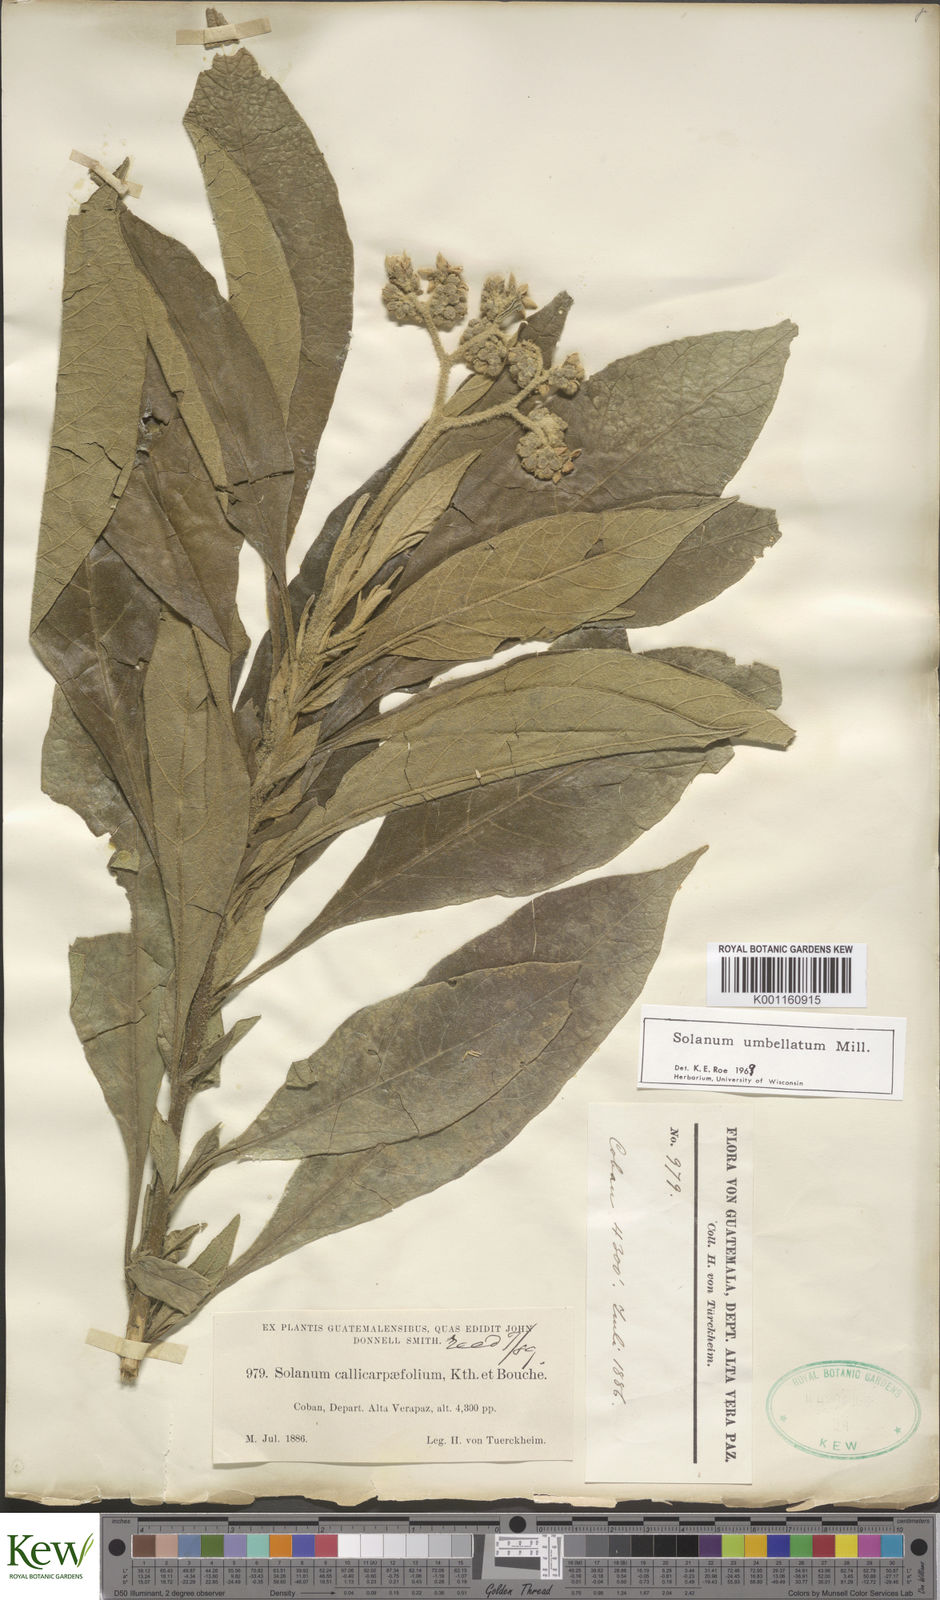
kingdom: Plantae
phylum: Tracheophyta
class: Magnoliopsida
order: Solanales
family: Solanaceae
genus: Solanum
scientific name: Solanum umbellatum
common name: Nightshade
